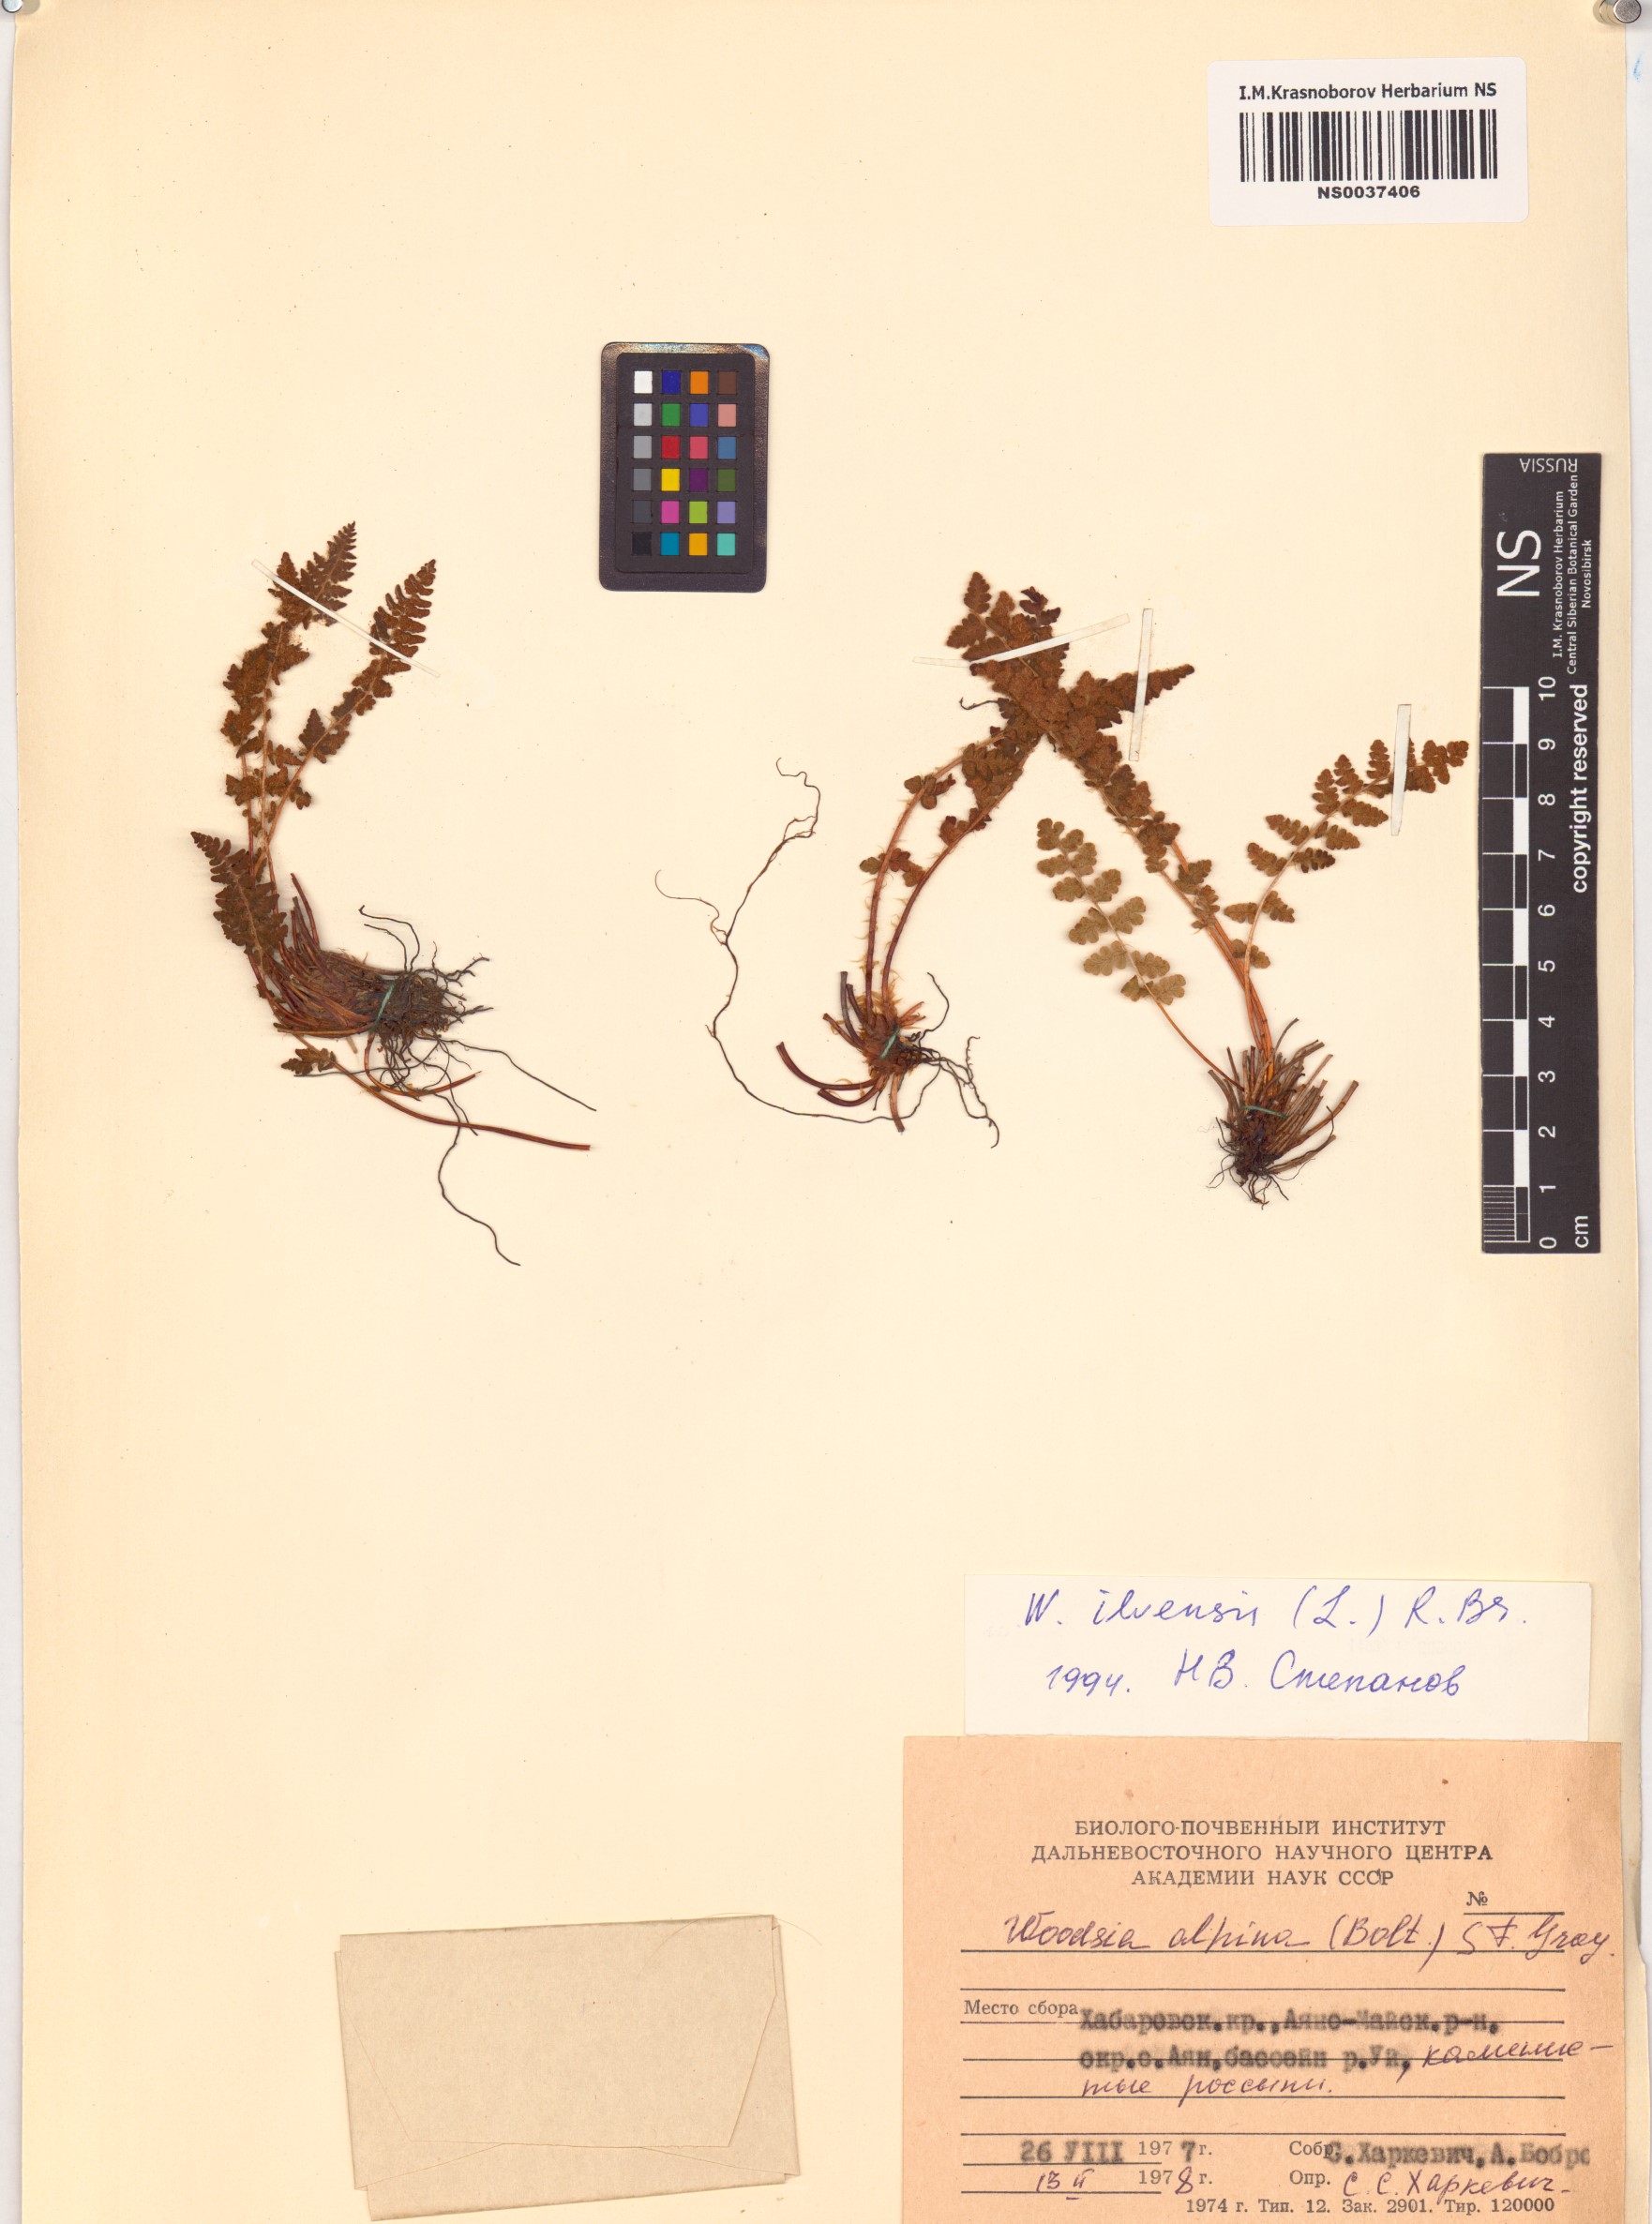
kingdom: Plantae
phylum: Tracheophyta
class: Polypodiopsida
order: Polypodiales
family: Woodsiaceae
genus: Woodsia
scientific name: Woodsia ilvensis
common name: Fragrant woodsia
